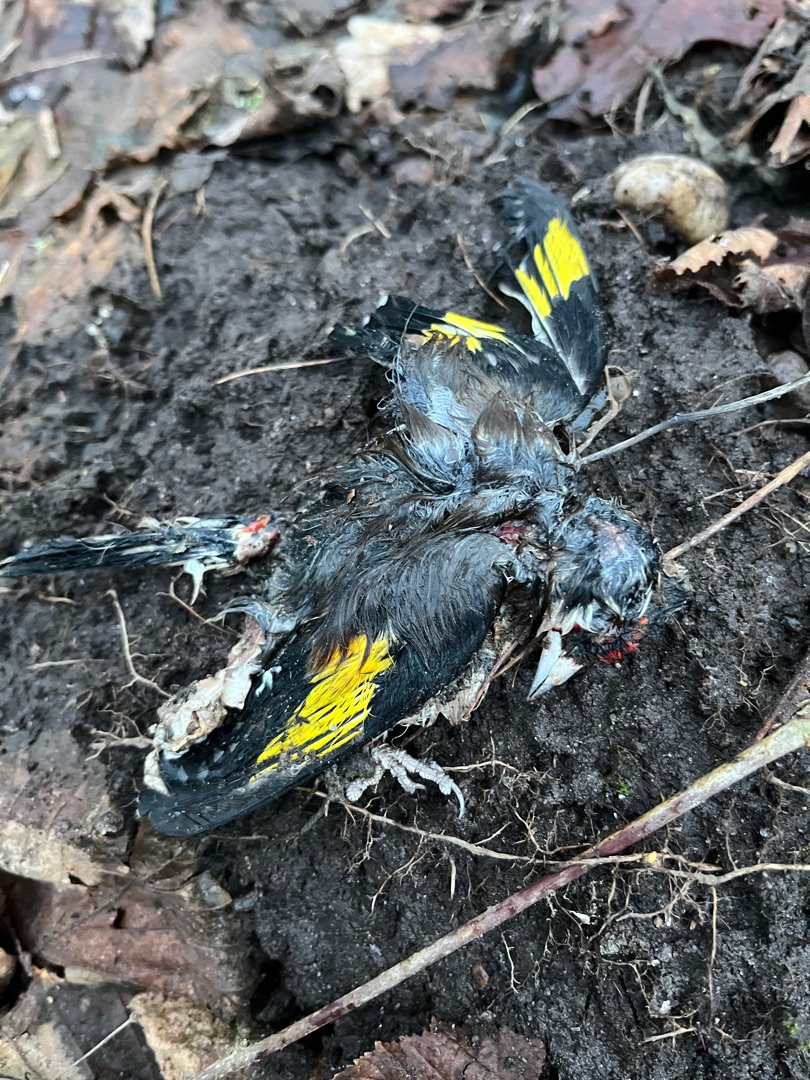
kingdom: Animalia
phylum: Chordata
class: Aves
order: Passeriformes
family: Fringillidae
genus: Carduelis
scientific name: Carduelis carduelis
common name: Stillits
